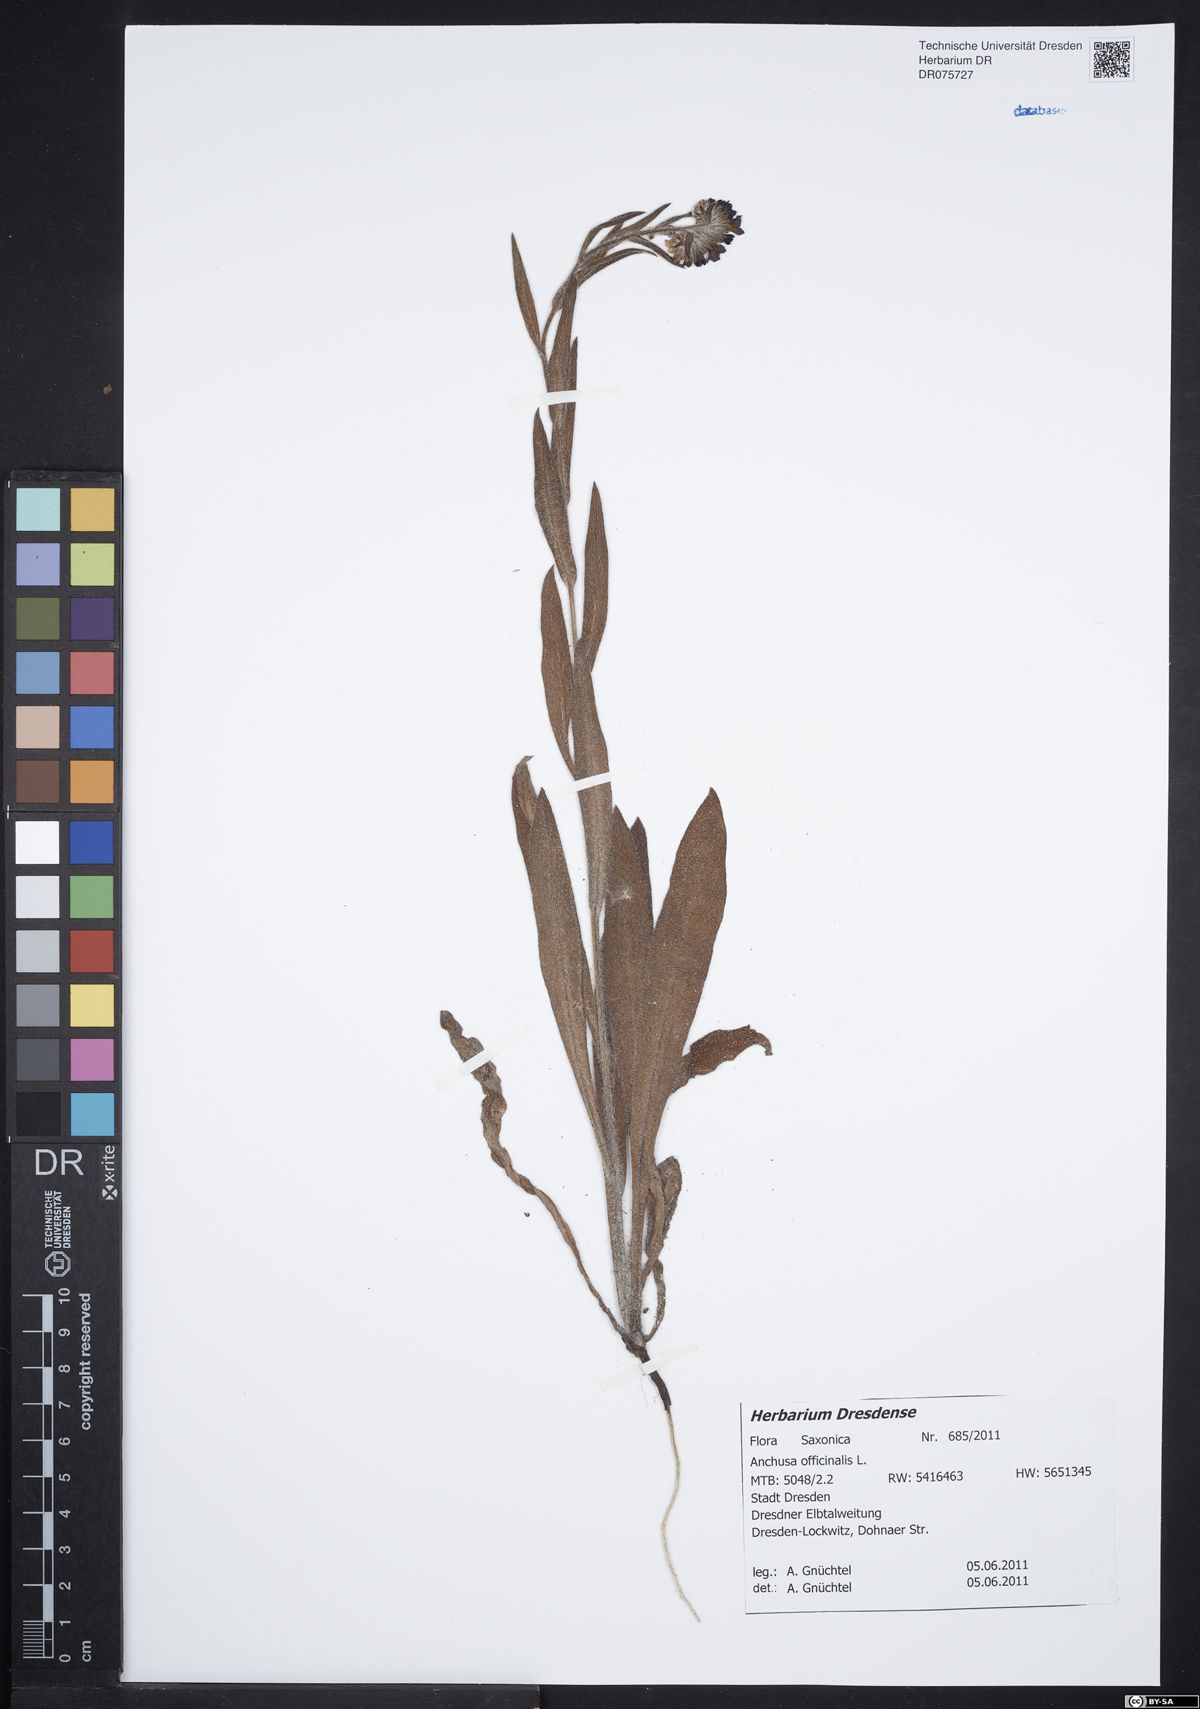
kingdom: Plantae
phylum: Tracheophyta
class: Magnoliopsida
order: Boraginales
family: Boraginaceae
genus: Anchusa
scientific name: Anchusa officinalis
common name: Alkanet
